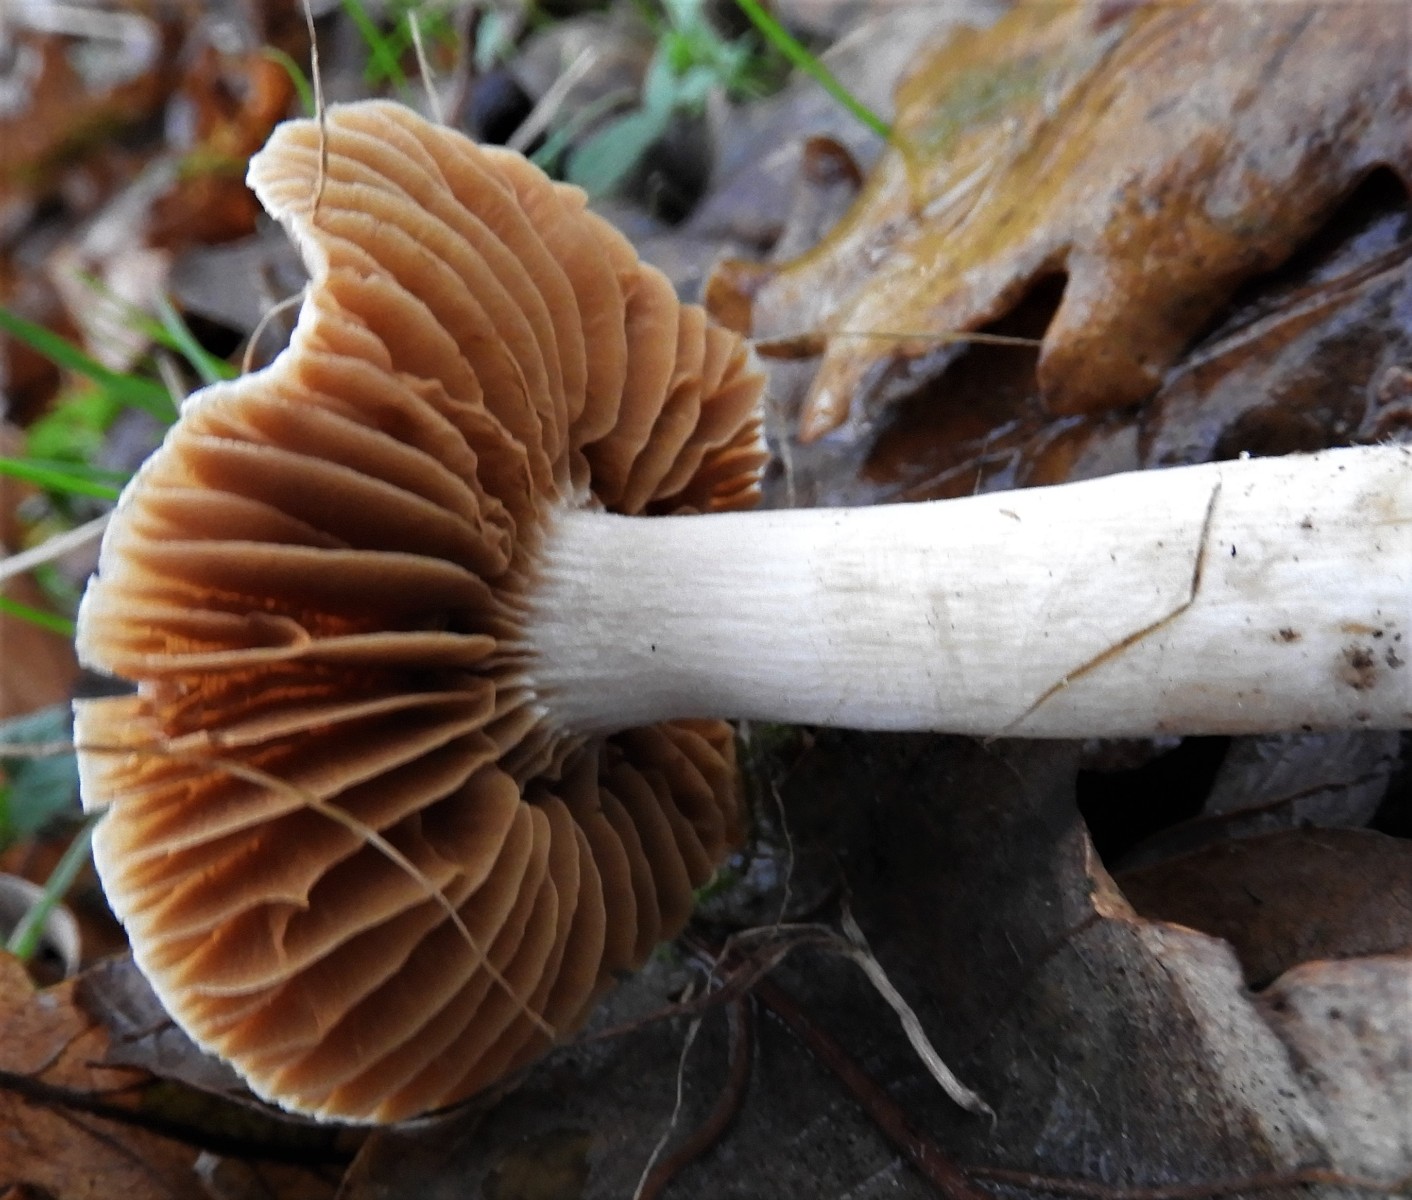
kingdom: Fungi
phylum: Basidiomycota
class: Agaricomycetes
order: Agaricales
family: Cortinariaceae
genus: Cortinarius
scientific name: Cortinarius
